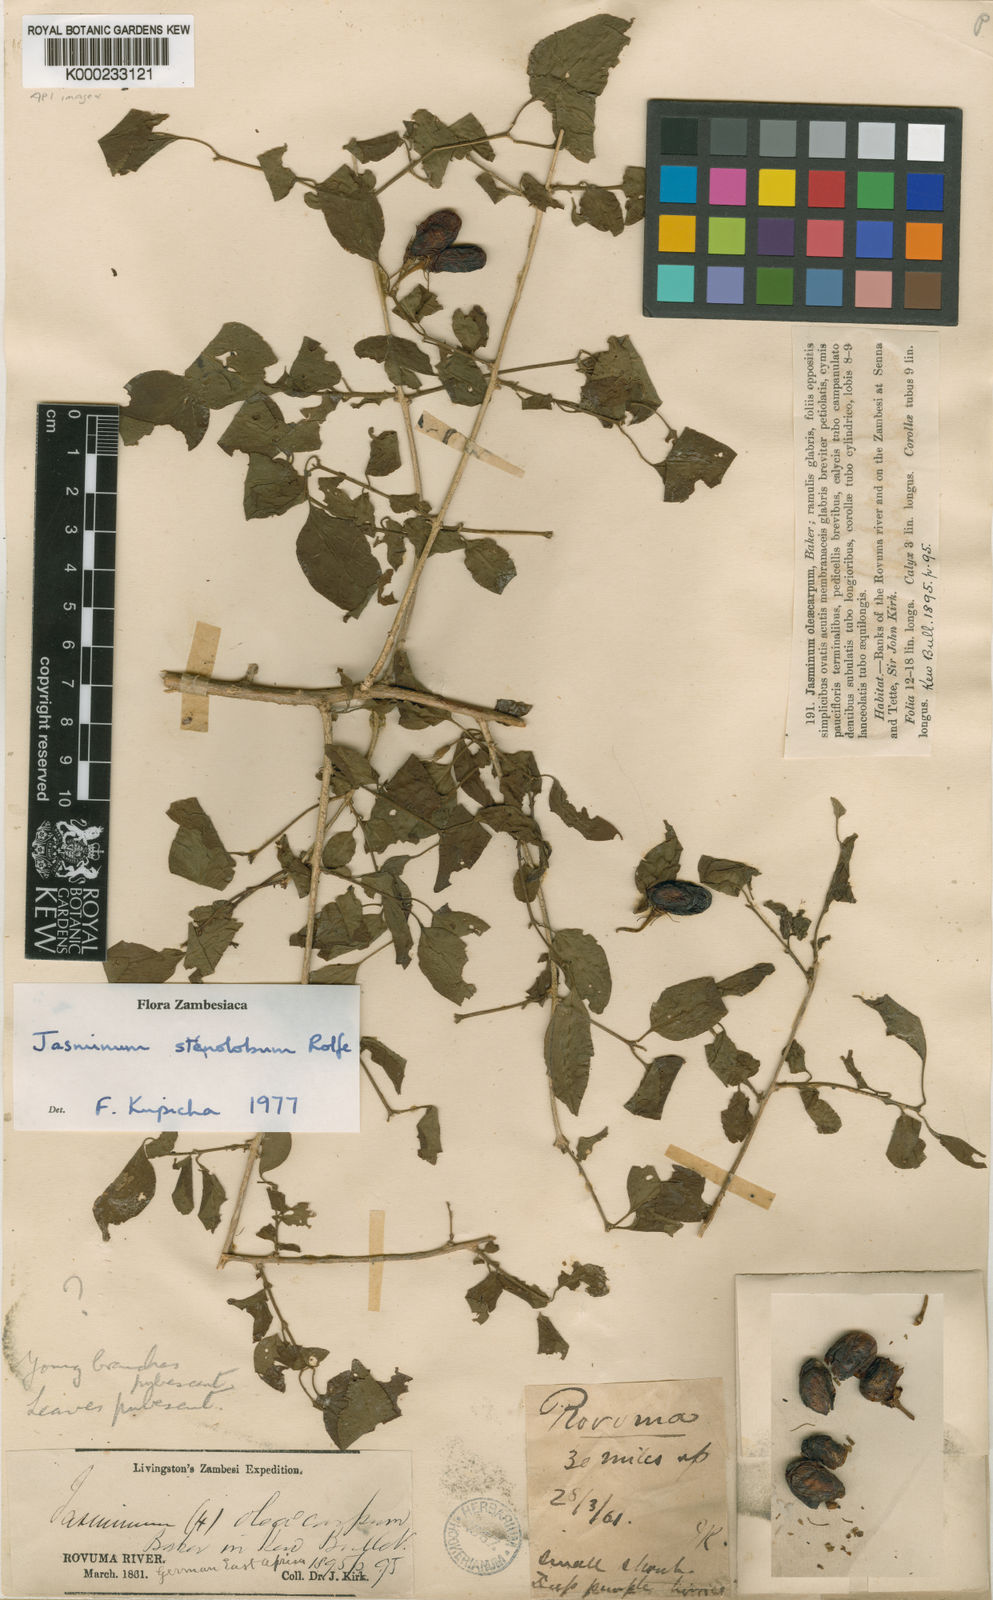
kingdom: Plantae
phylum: Tracheophyta
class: Magnoliopsida
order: Lamiales
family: Oleaceae
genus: Jasminum
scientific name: Jasminum
